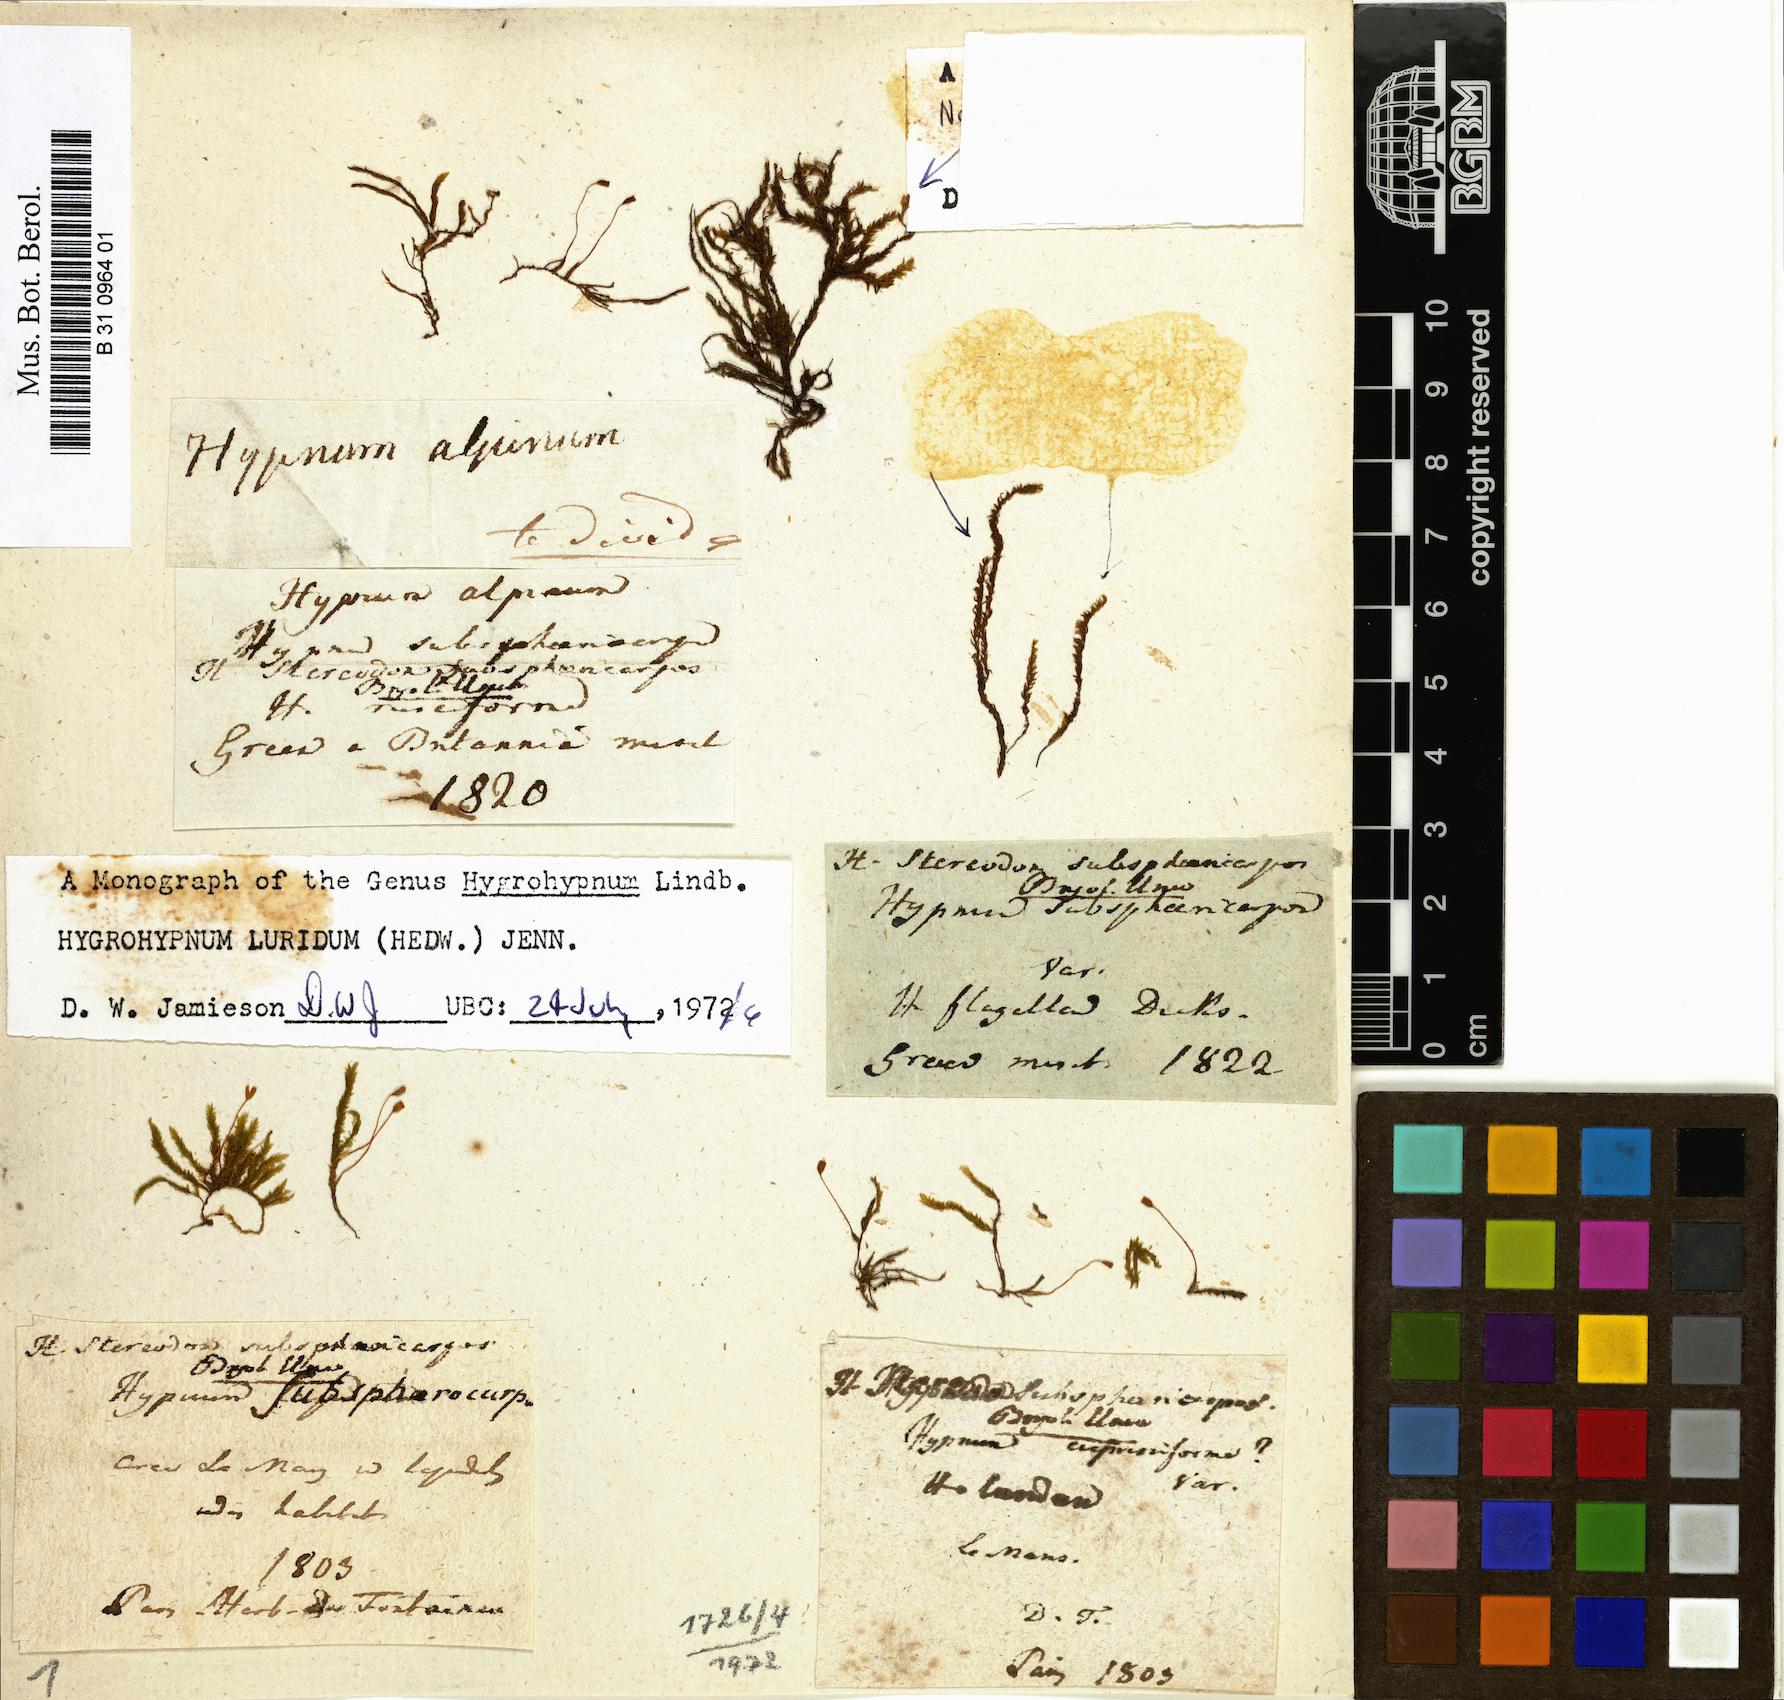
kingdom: Plantae
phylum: Bryophyta
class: Bryopsida
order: Hypnales
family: Stereodontaceae
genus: Stereodon
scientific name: Stereodon subsphaericarpus
